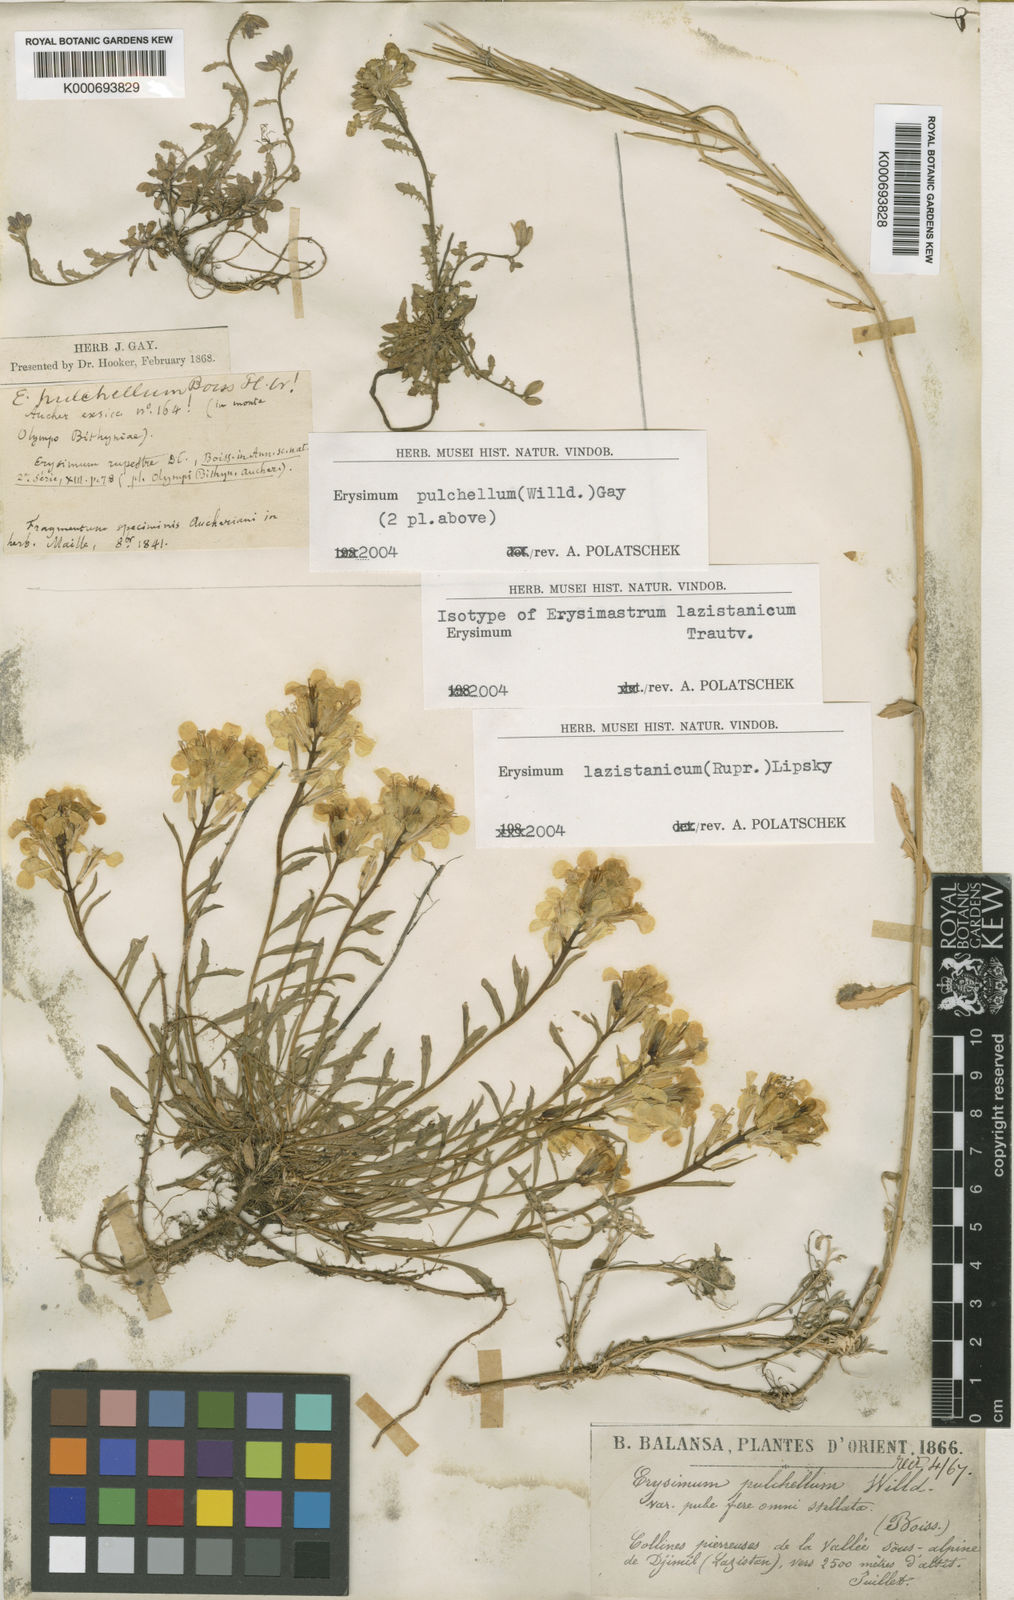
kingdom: Plantae
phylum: Tracheophyta
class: Magnoliopsida
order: Brassicales
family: Brassicaceae
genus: Erysimum
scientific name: Erysimum pulchellum
